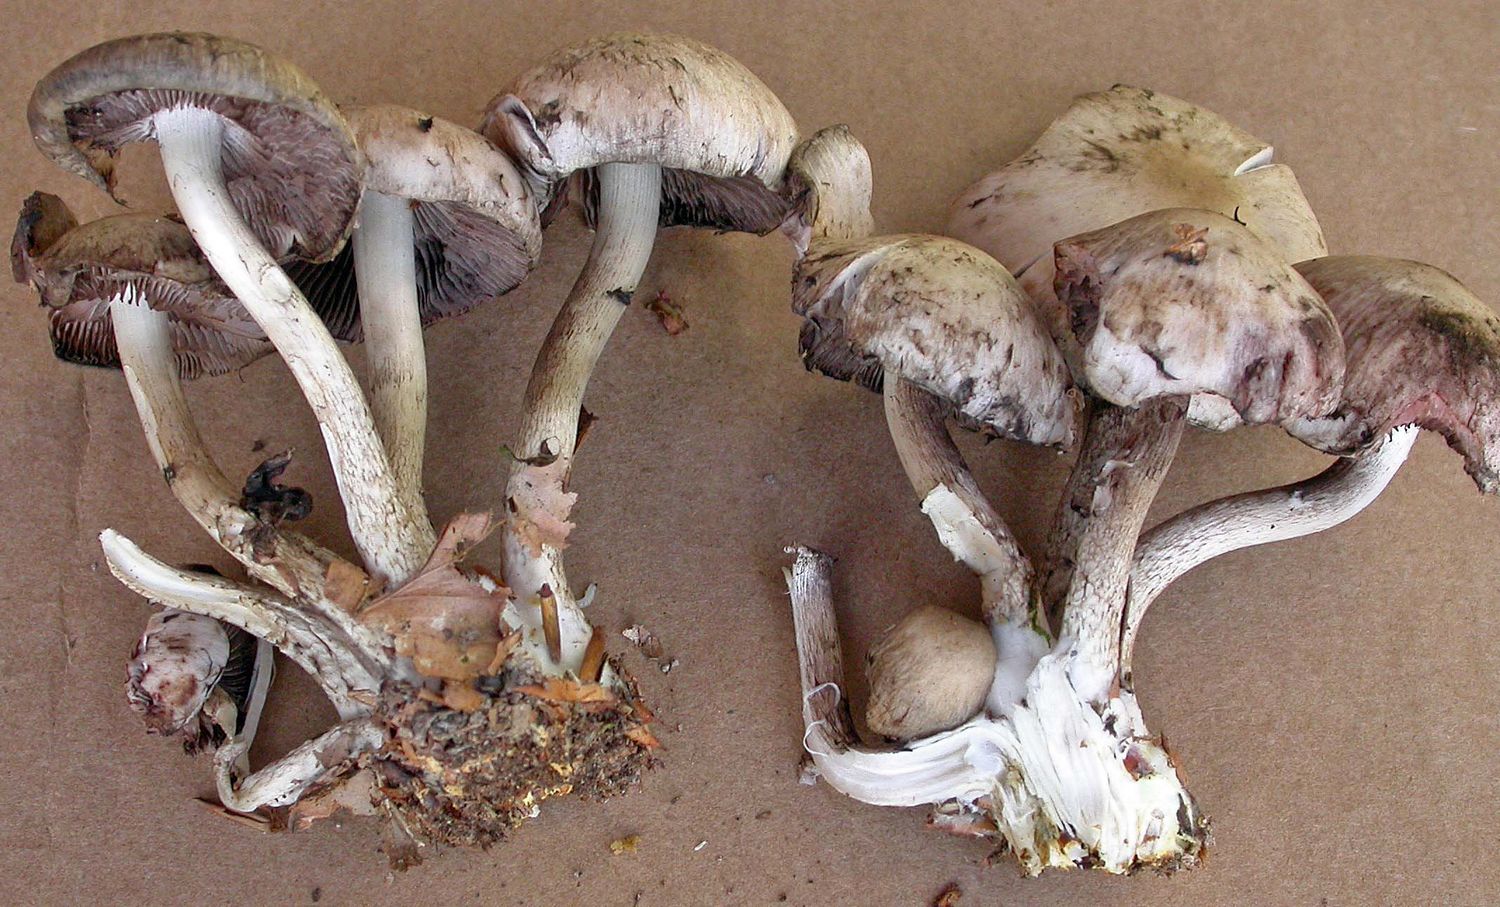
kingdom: Fungi
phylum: Basidiomycota
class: Agaricomycetes
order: Agaricales
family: Psathyrellaceae
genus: Psathyrella
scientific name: Psathyrella maculata
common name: sortskællet mørkhat
